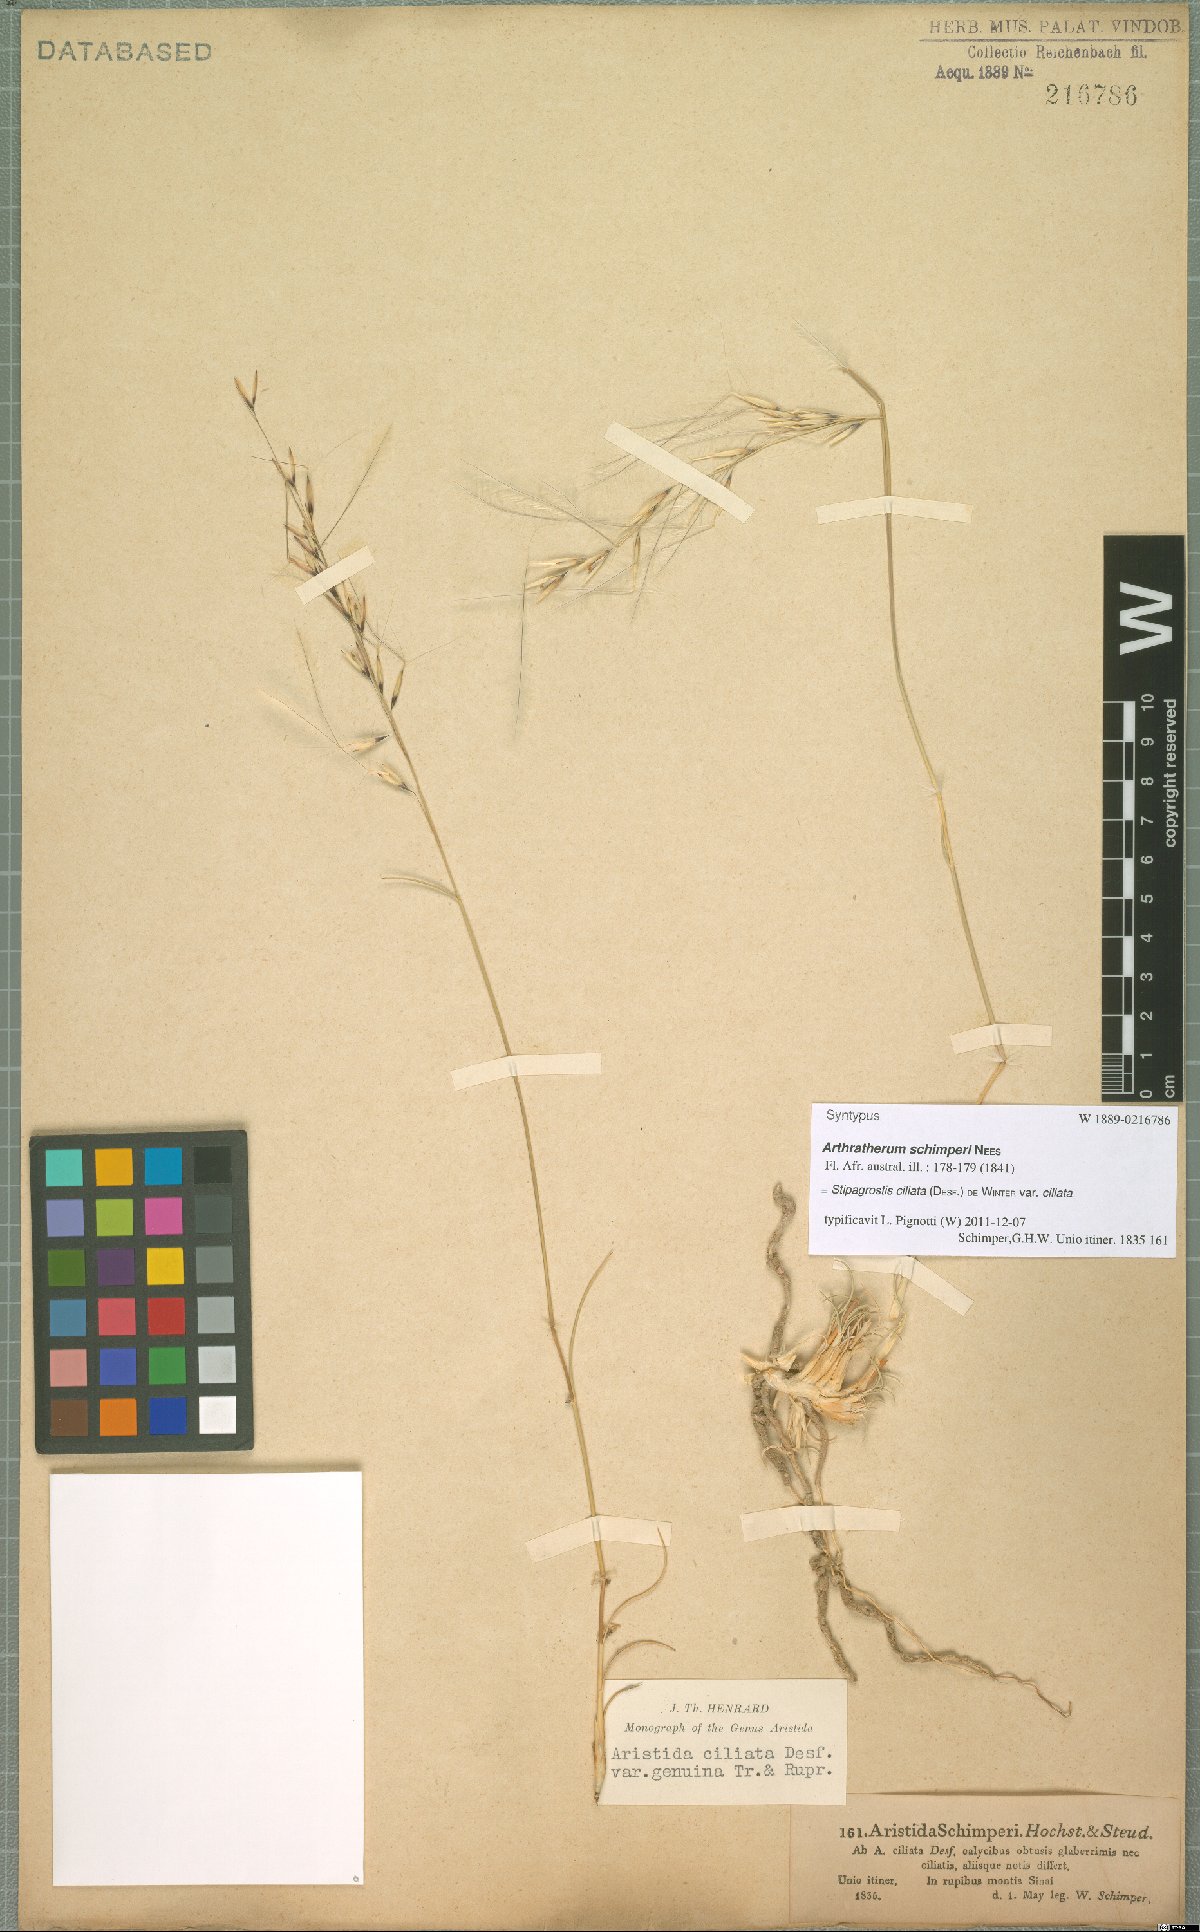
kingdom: Plantae
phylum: Tracheophyta
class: Liliopsida
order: Poales
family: Poaceae
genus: Stipagrostis
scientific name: Stipagrostis ciliata
